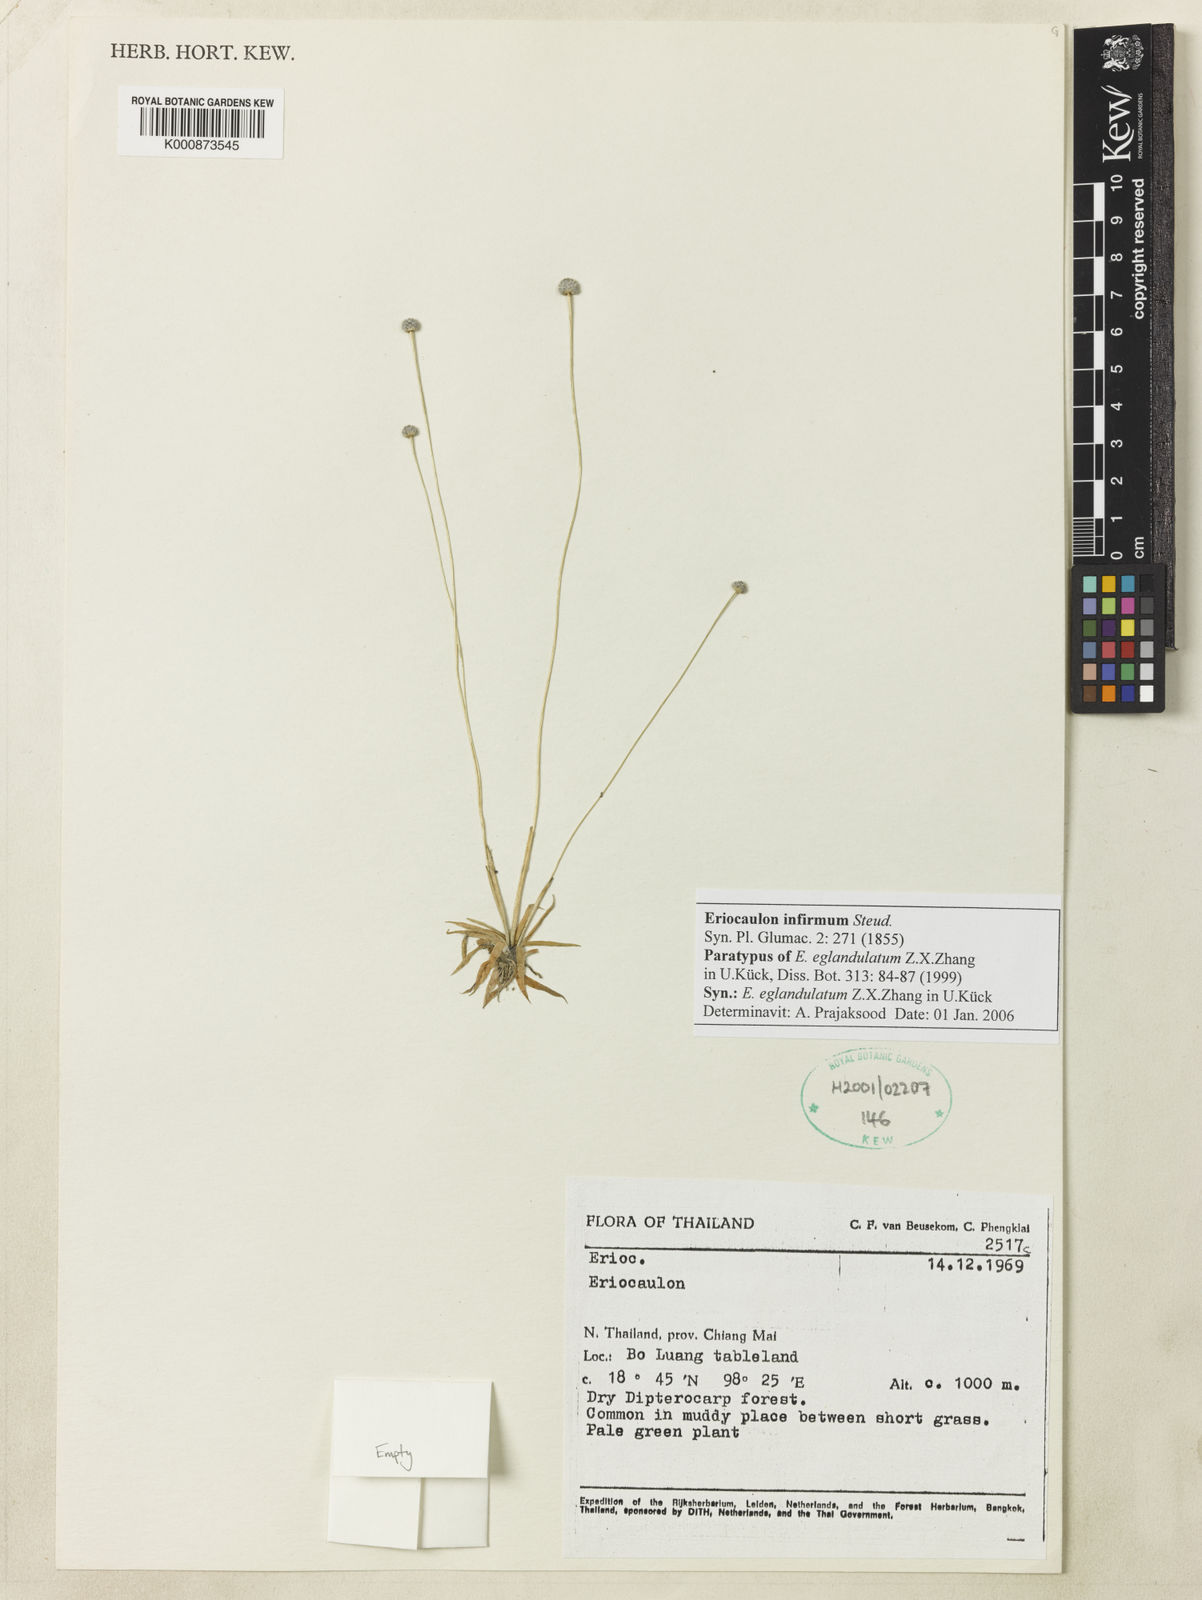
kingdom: Plantae
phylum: Tracheophyta
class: Liliopsida
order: Poales
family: Eriocaulaceae
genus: Eriocaulon
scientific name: Eriocaulon infirmum
